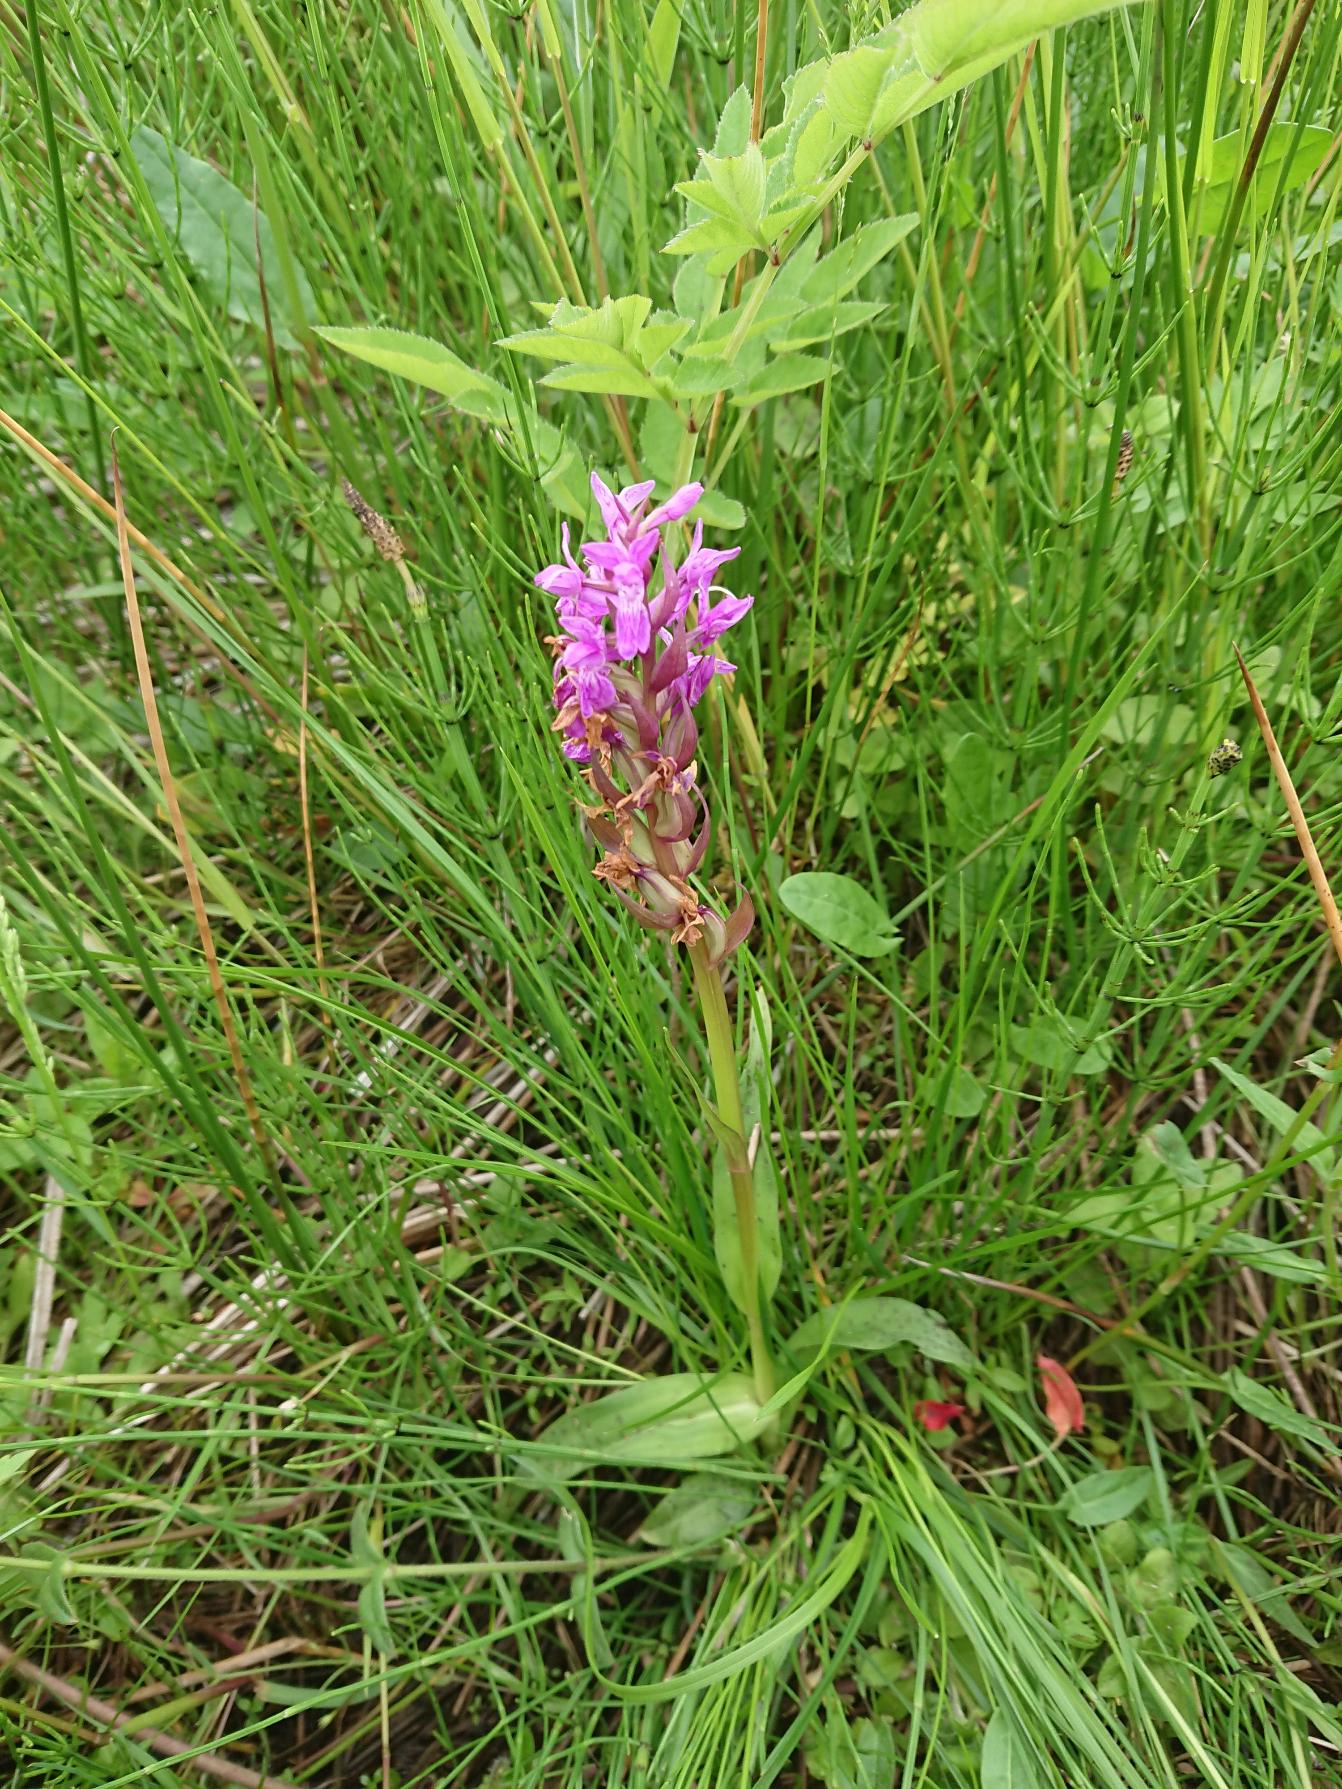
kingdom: Plantae
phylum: Tracheophyta
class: Liliopsida
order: Asparagales
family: Orchidaceae
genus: Dactylorhiza
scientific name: Dactylorhiza majalis
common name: Maj-gøgeurt
